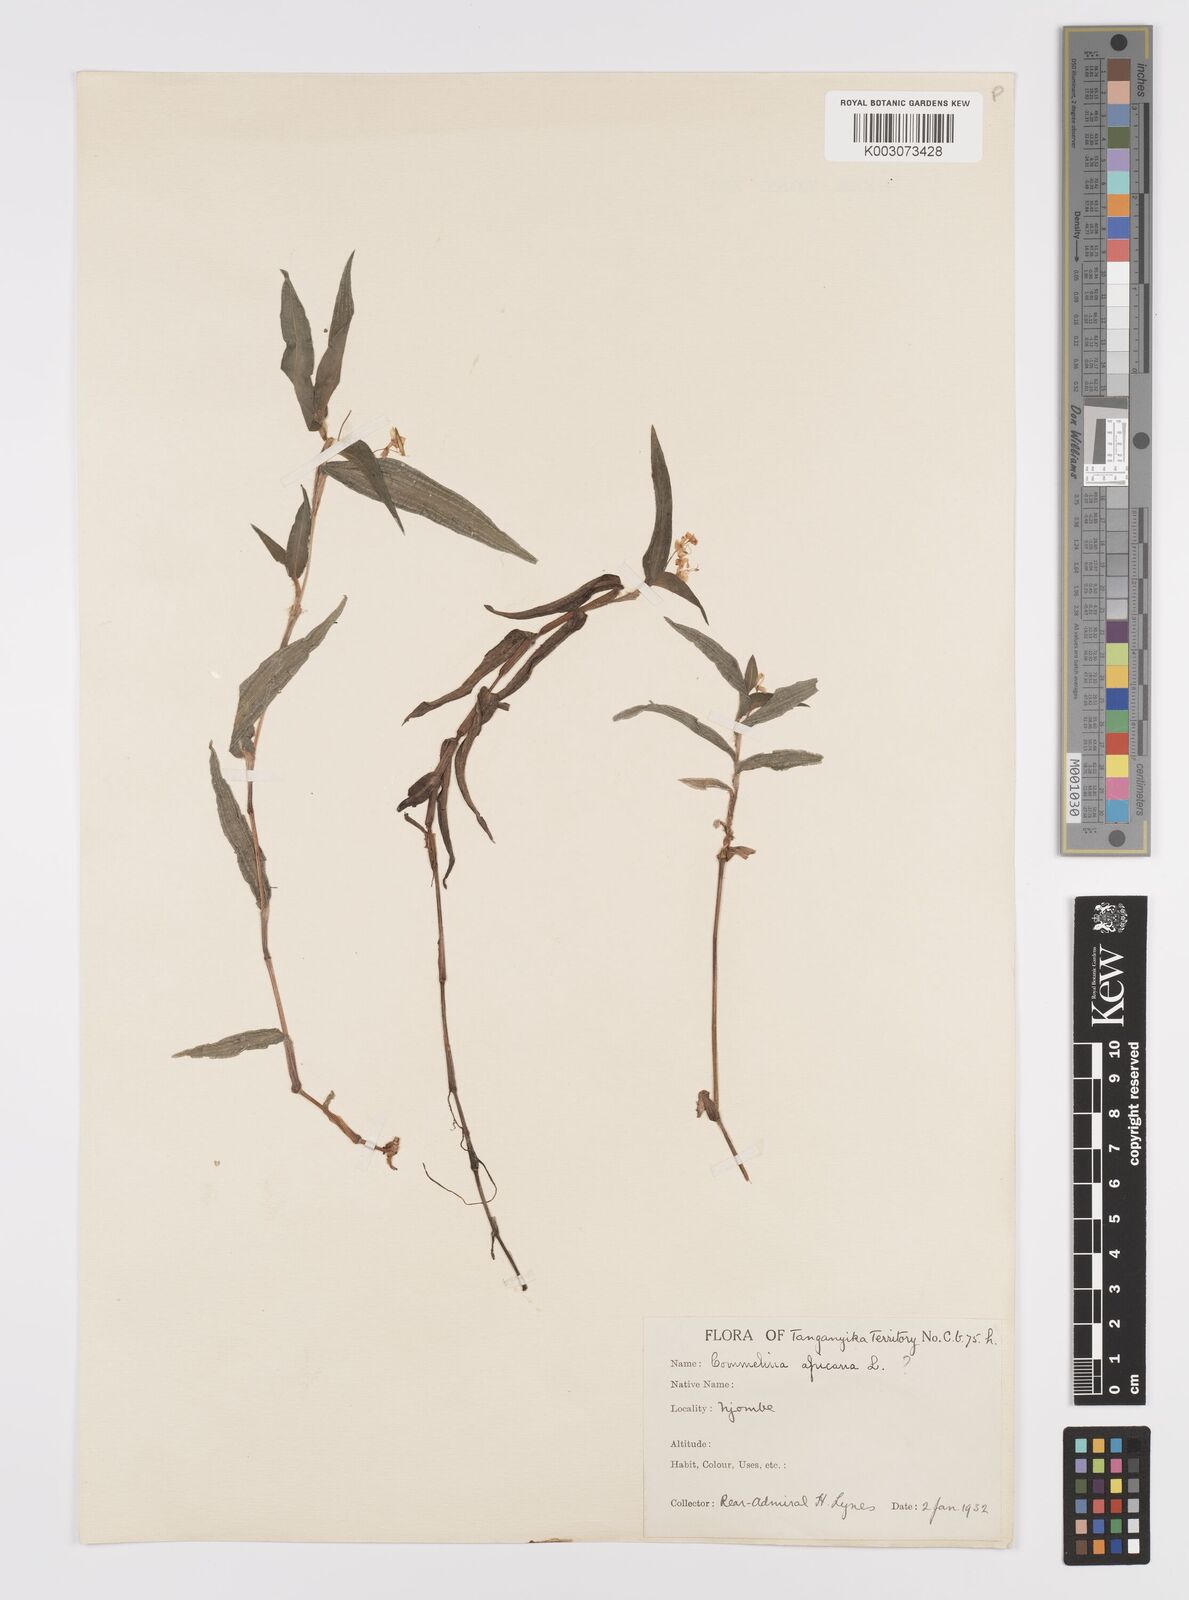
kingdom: Plantae
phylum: Tracheophyta
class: Liliopsida
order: Commelinales
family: Commelinaceae
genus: Commelina
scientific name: Commelina africana
